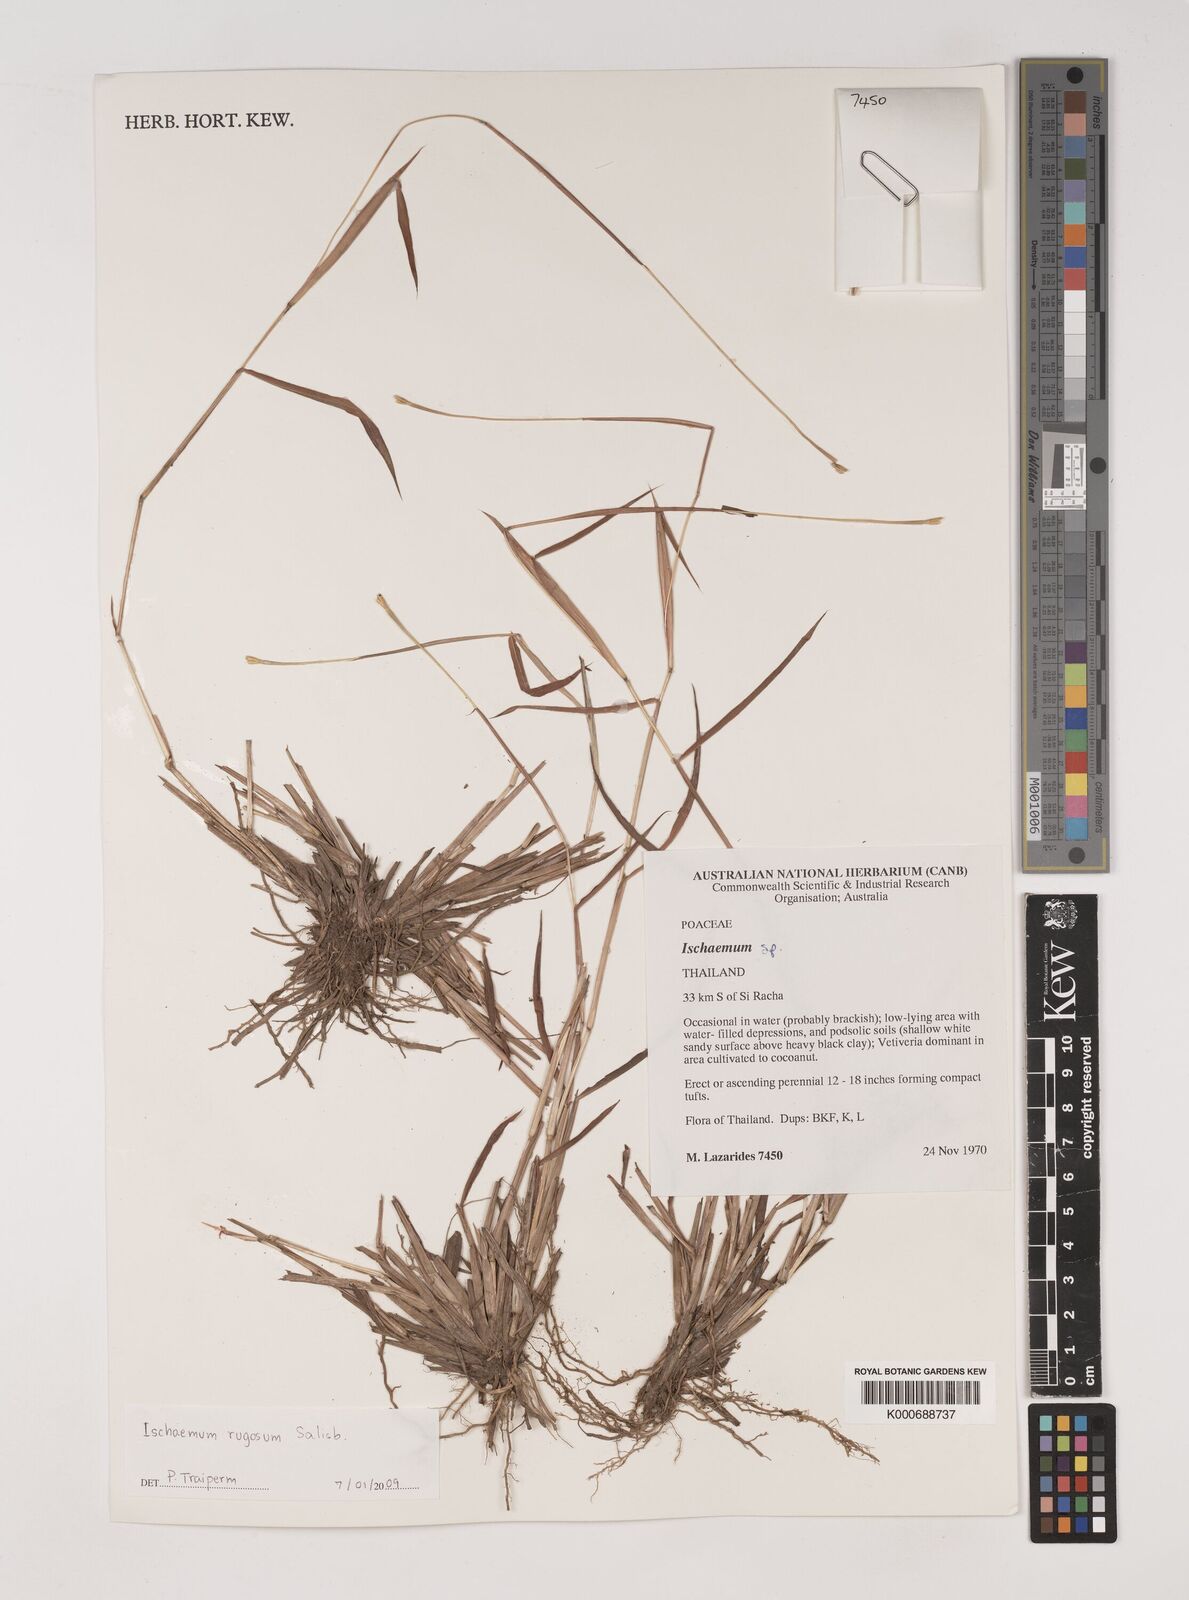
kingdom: Plantae
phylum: Tracheophyta
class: Liliopsida
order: Poales
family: Poaceae
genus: Ischaemum
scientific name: Ischaemum rugosum
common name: Saramatta grass
